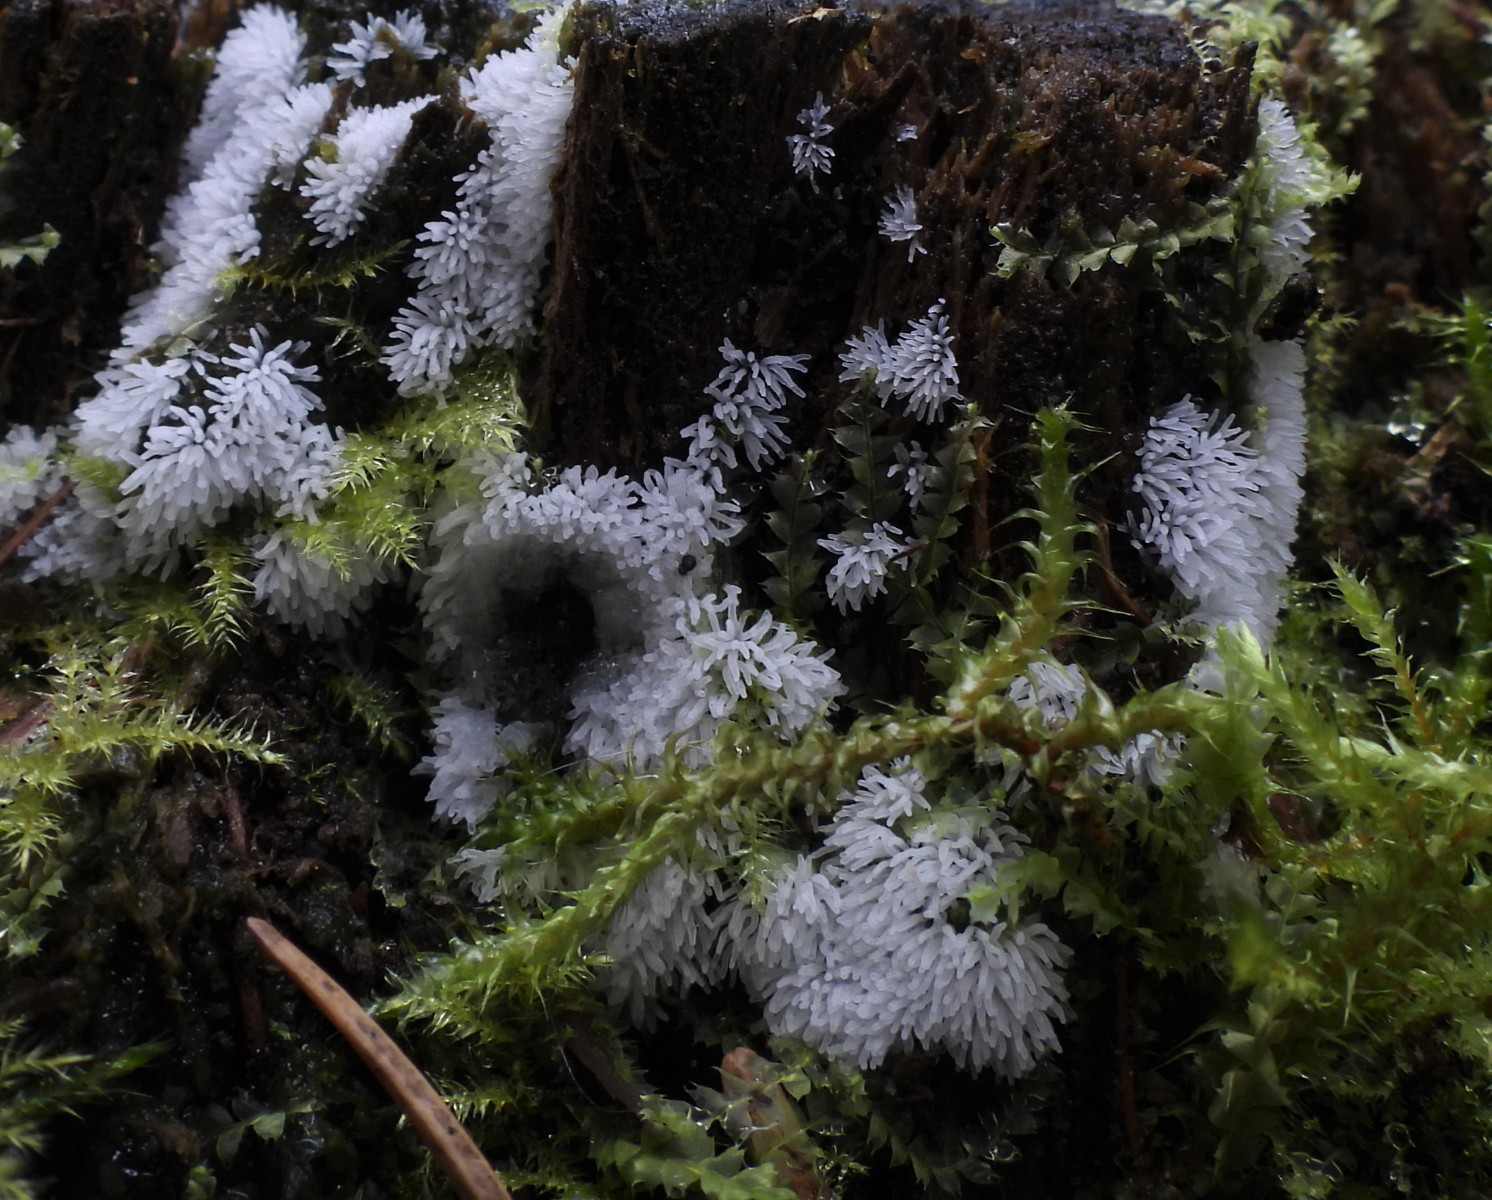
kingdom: Protozoa
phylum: Mycetozoa
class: Protosteliomycetes
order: Ceratiomyxales
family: Ceratiomyxaceae
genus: Ceratiomyxa
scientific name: Ceratiomyxa fruticulosa
